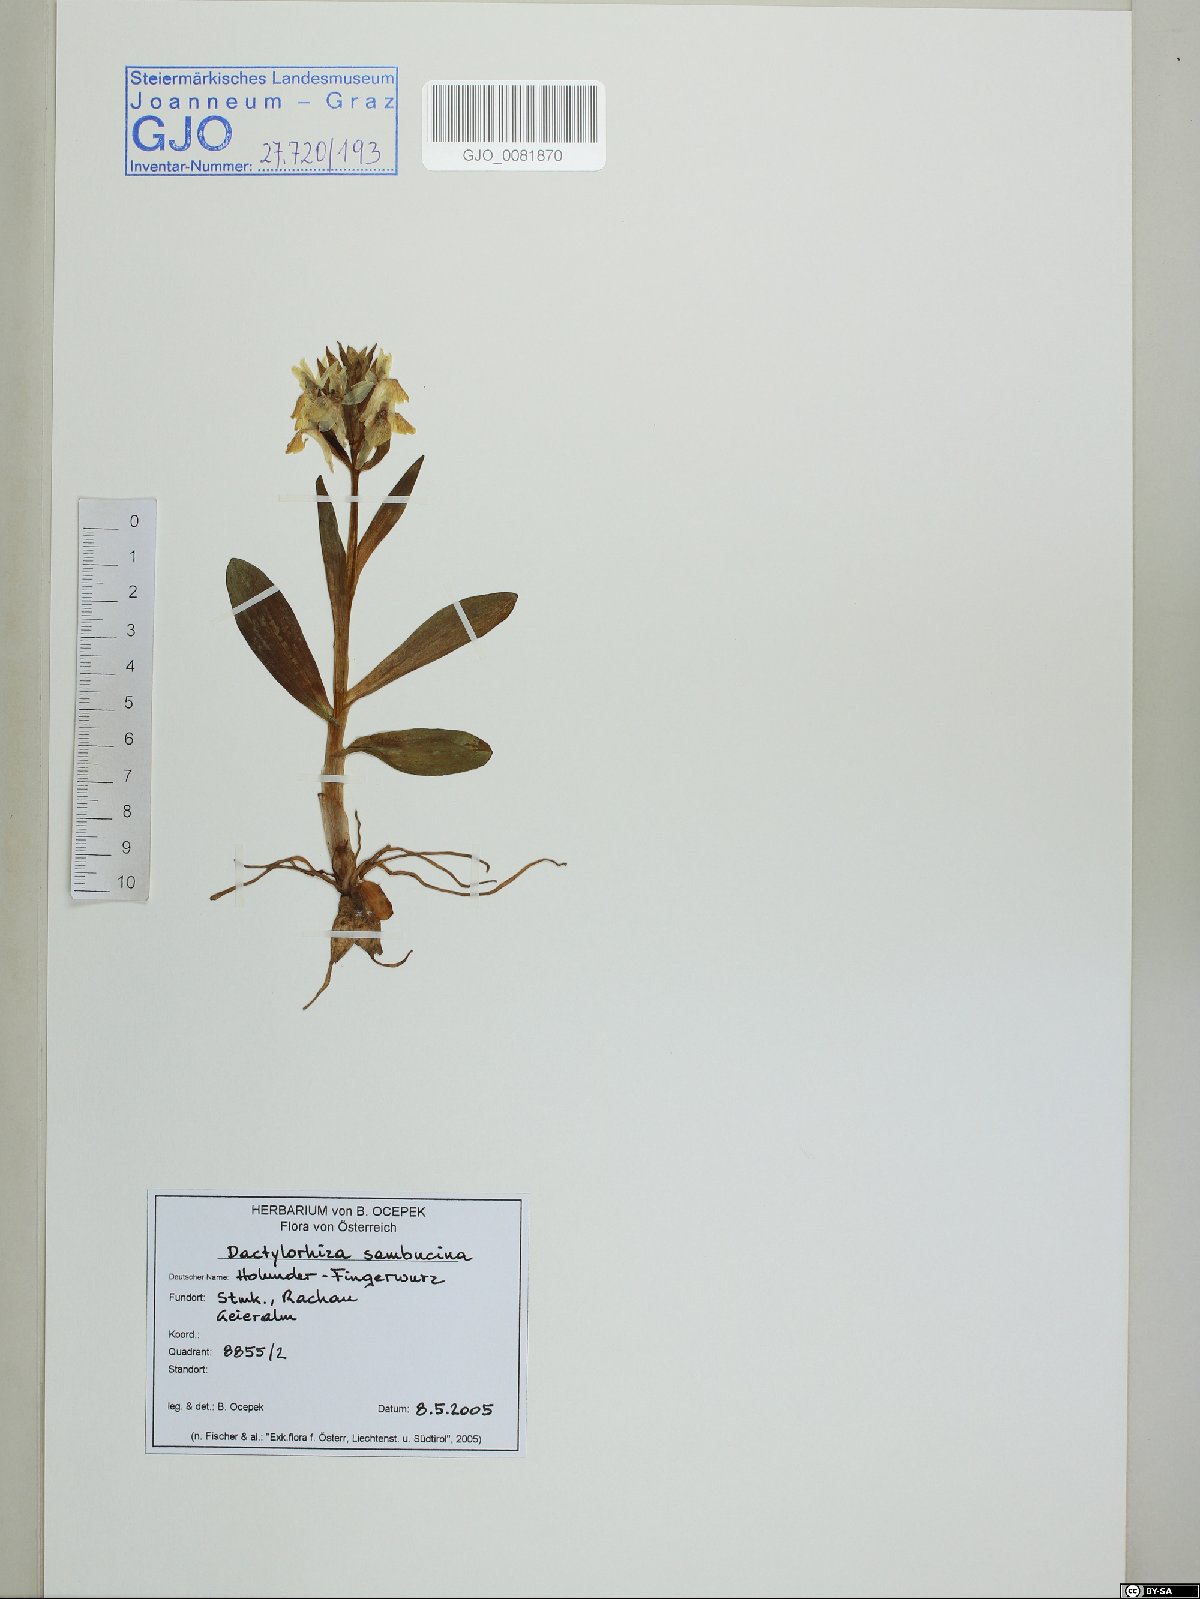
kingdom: Plantae
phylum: Tracheophyta
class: Liliopsida
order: Asparagales
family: Orchidaceae
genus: Dactylorhiza
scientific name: Dactylorhiza sambucina
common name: Elder-flowered orchid
